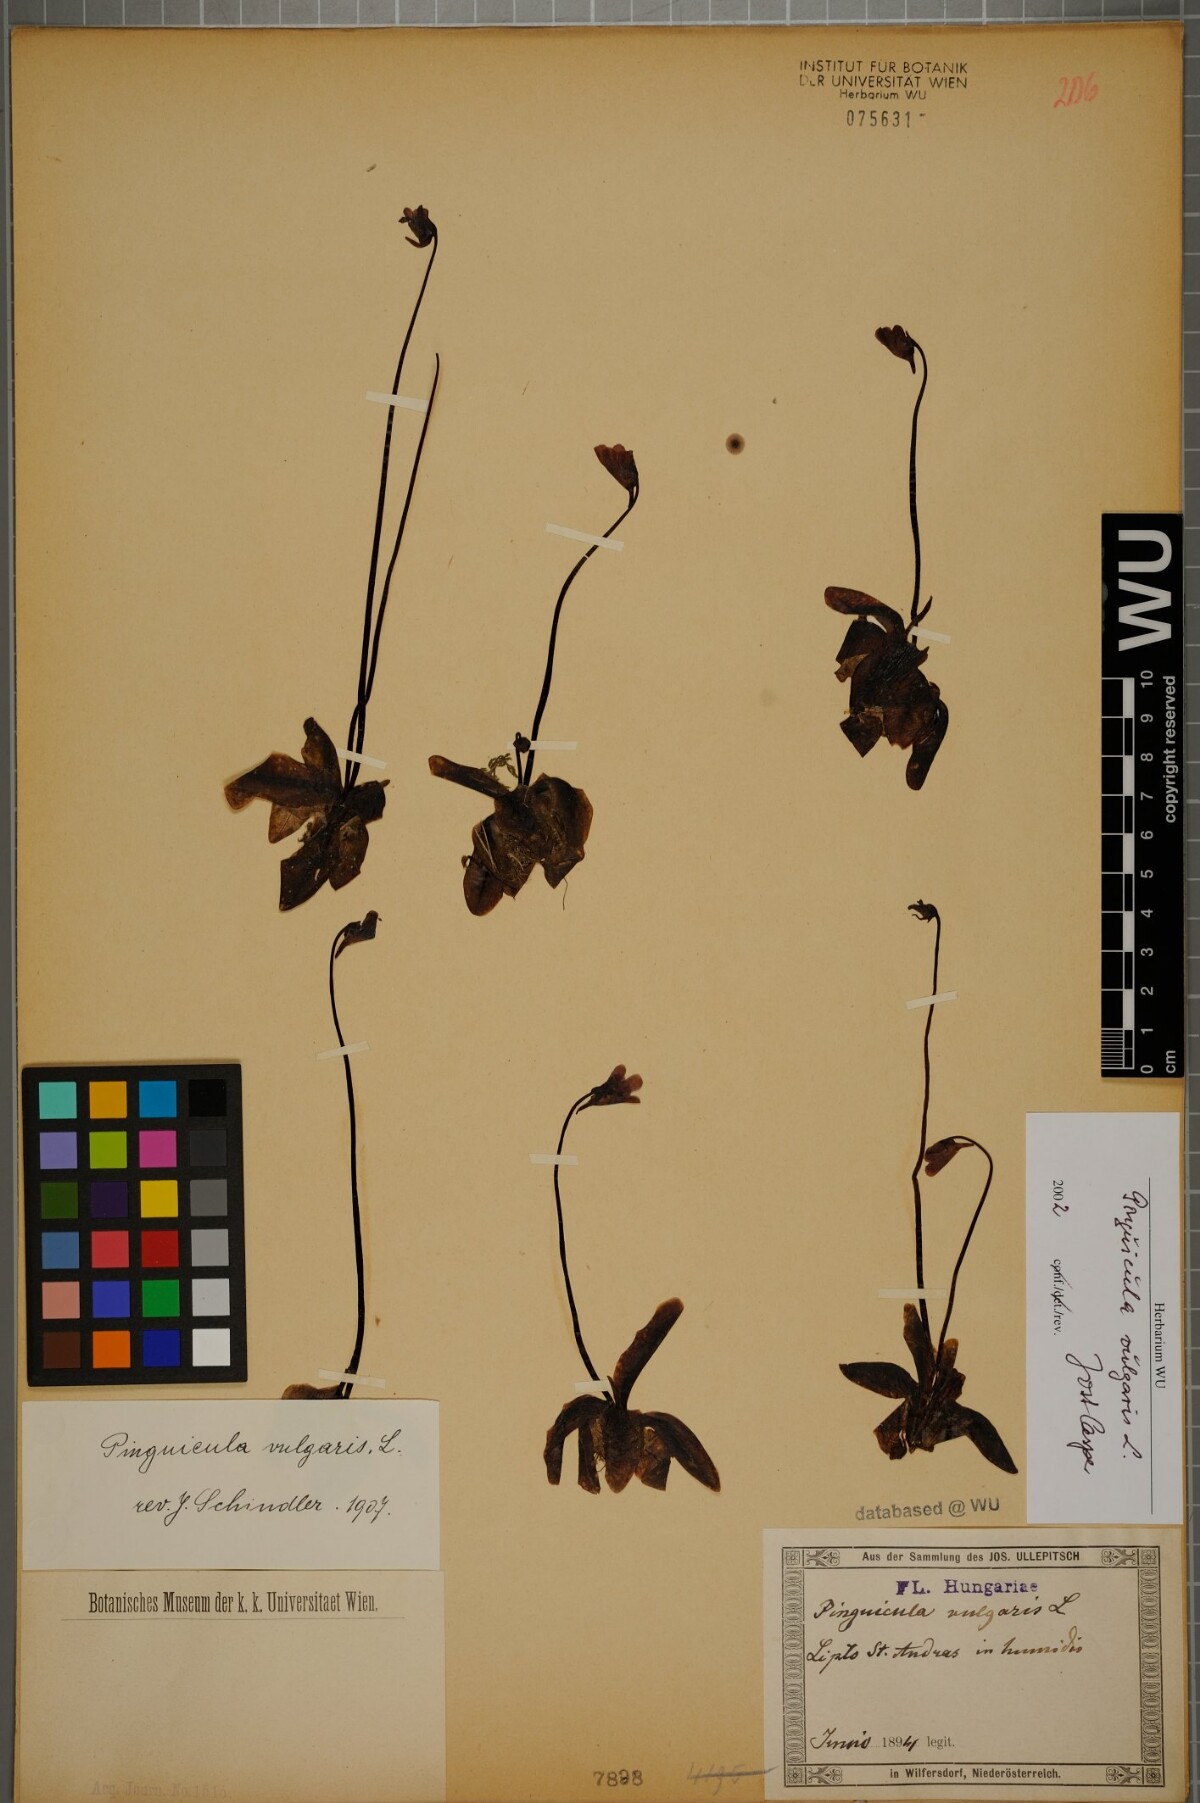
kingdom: Plantae
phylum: Tracheophyta
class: Magnoliopsida
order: Lamiales
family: Lentibulariaceae
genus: Pinguicula
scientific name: Pinguicula vulgaris
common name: Common butterwort
